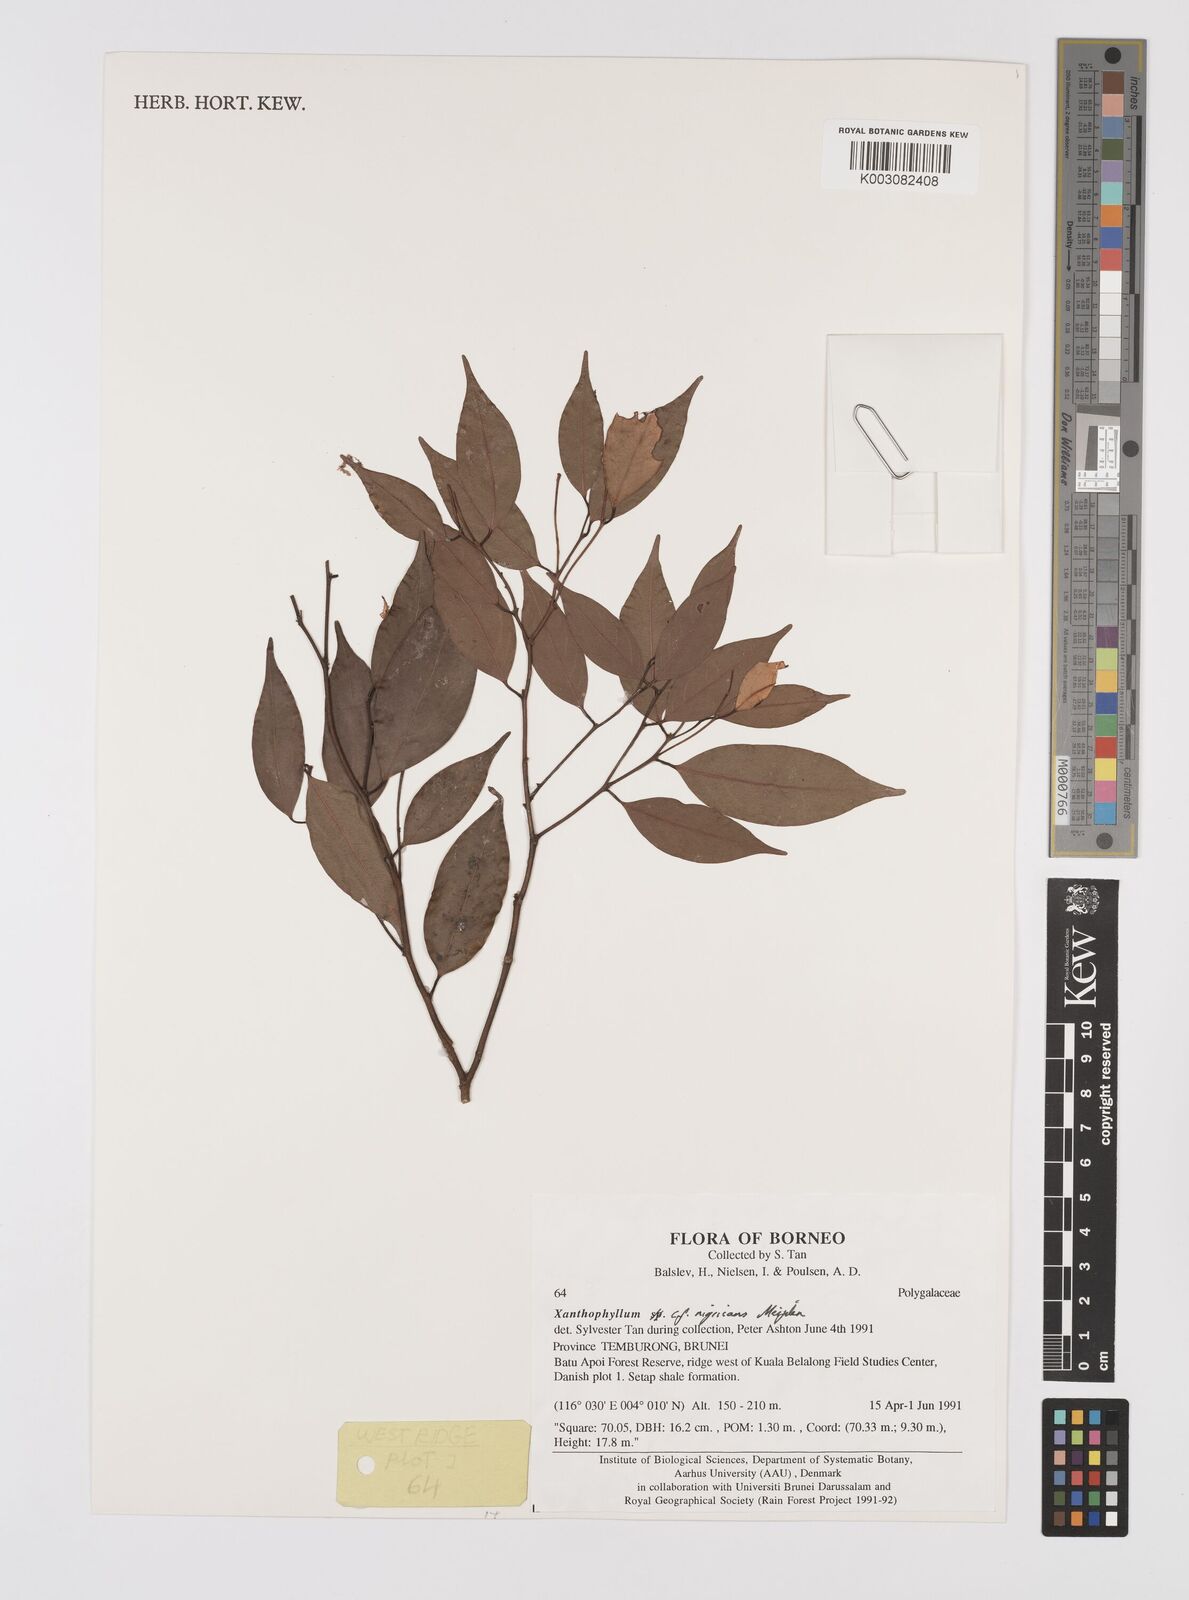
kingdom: Plantae
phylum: Tracheophyta
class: Magnoliopsida
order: Fabales
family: Polygalaceae
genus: Xanthophyllum
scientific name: Xanthophyllum nigricans
